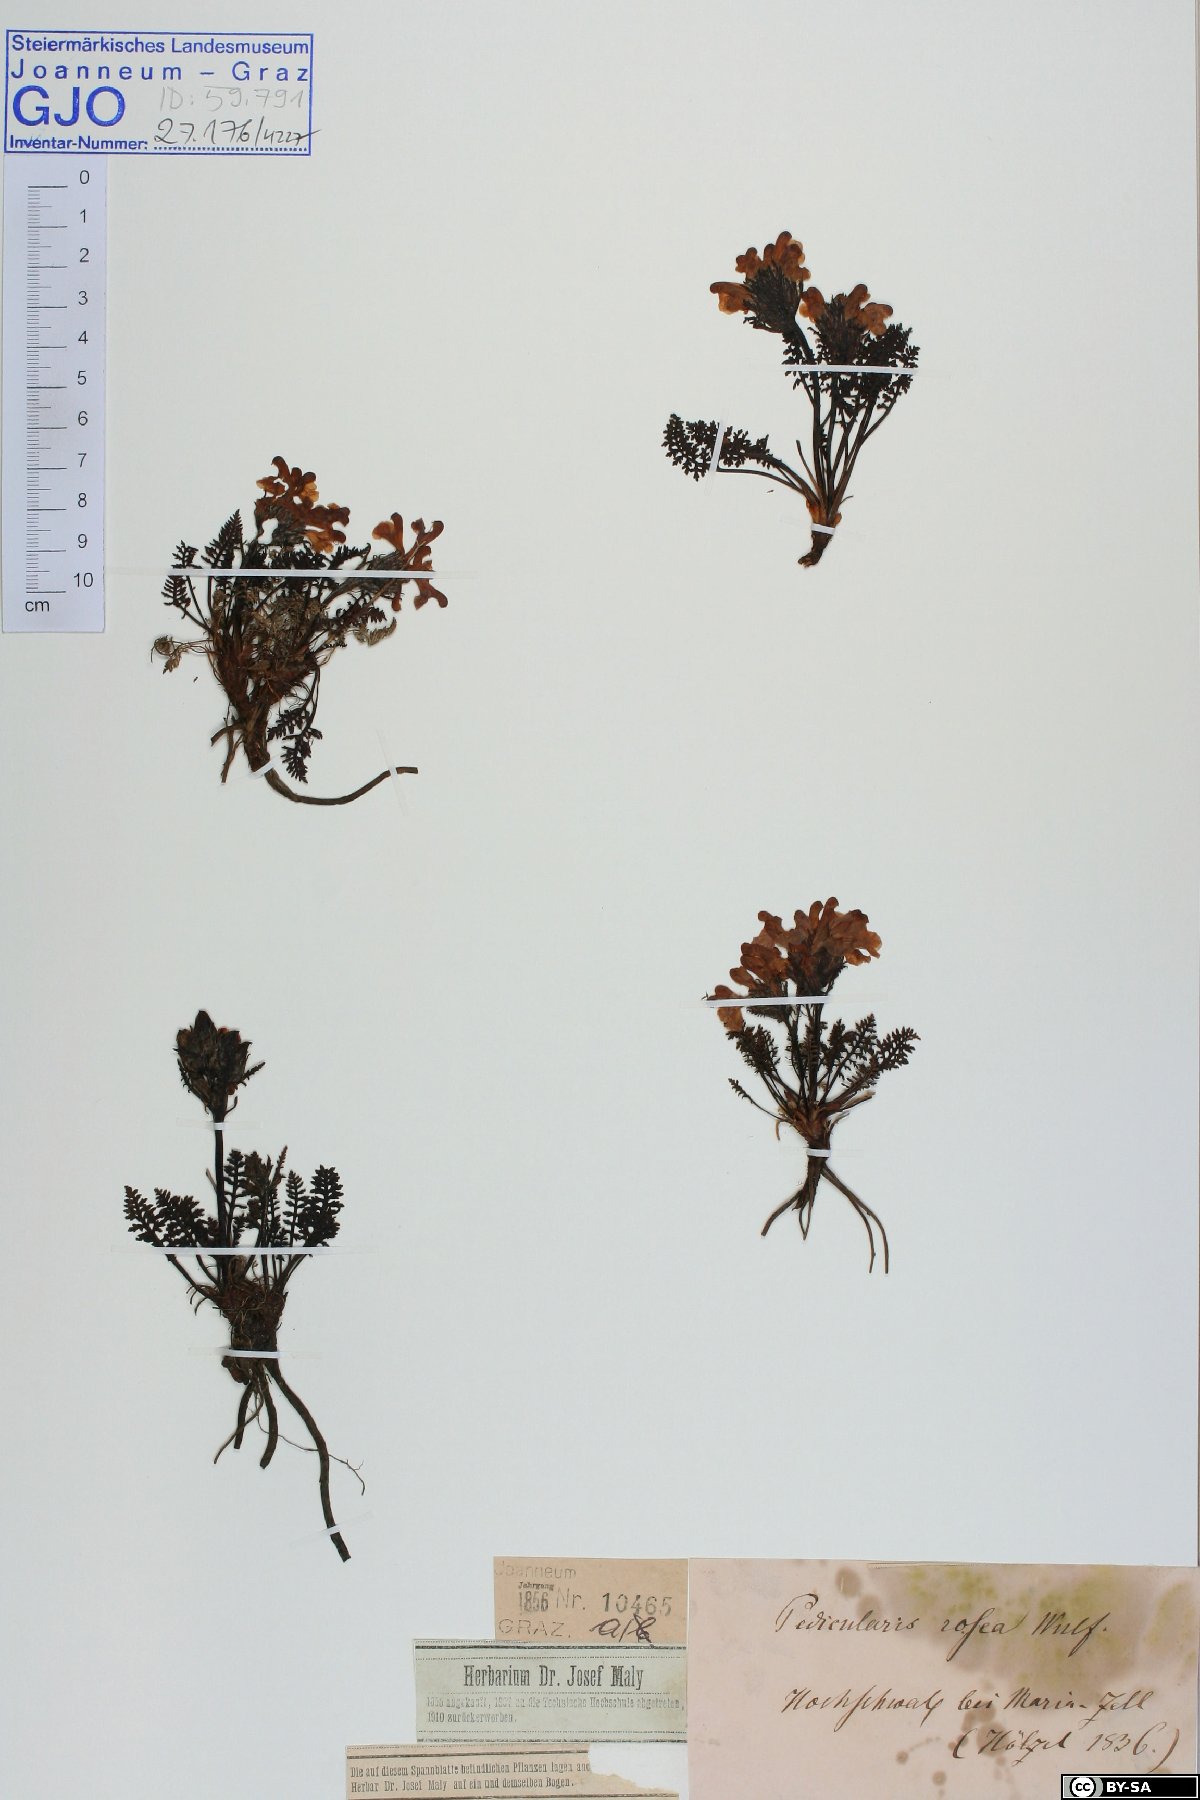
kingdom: Plantae
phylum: Tracheophyta
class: Magnoliopsida
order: Lamiales
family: Orobanchaceae
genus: Pedicularis
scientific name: Pedicularis rosea
